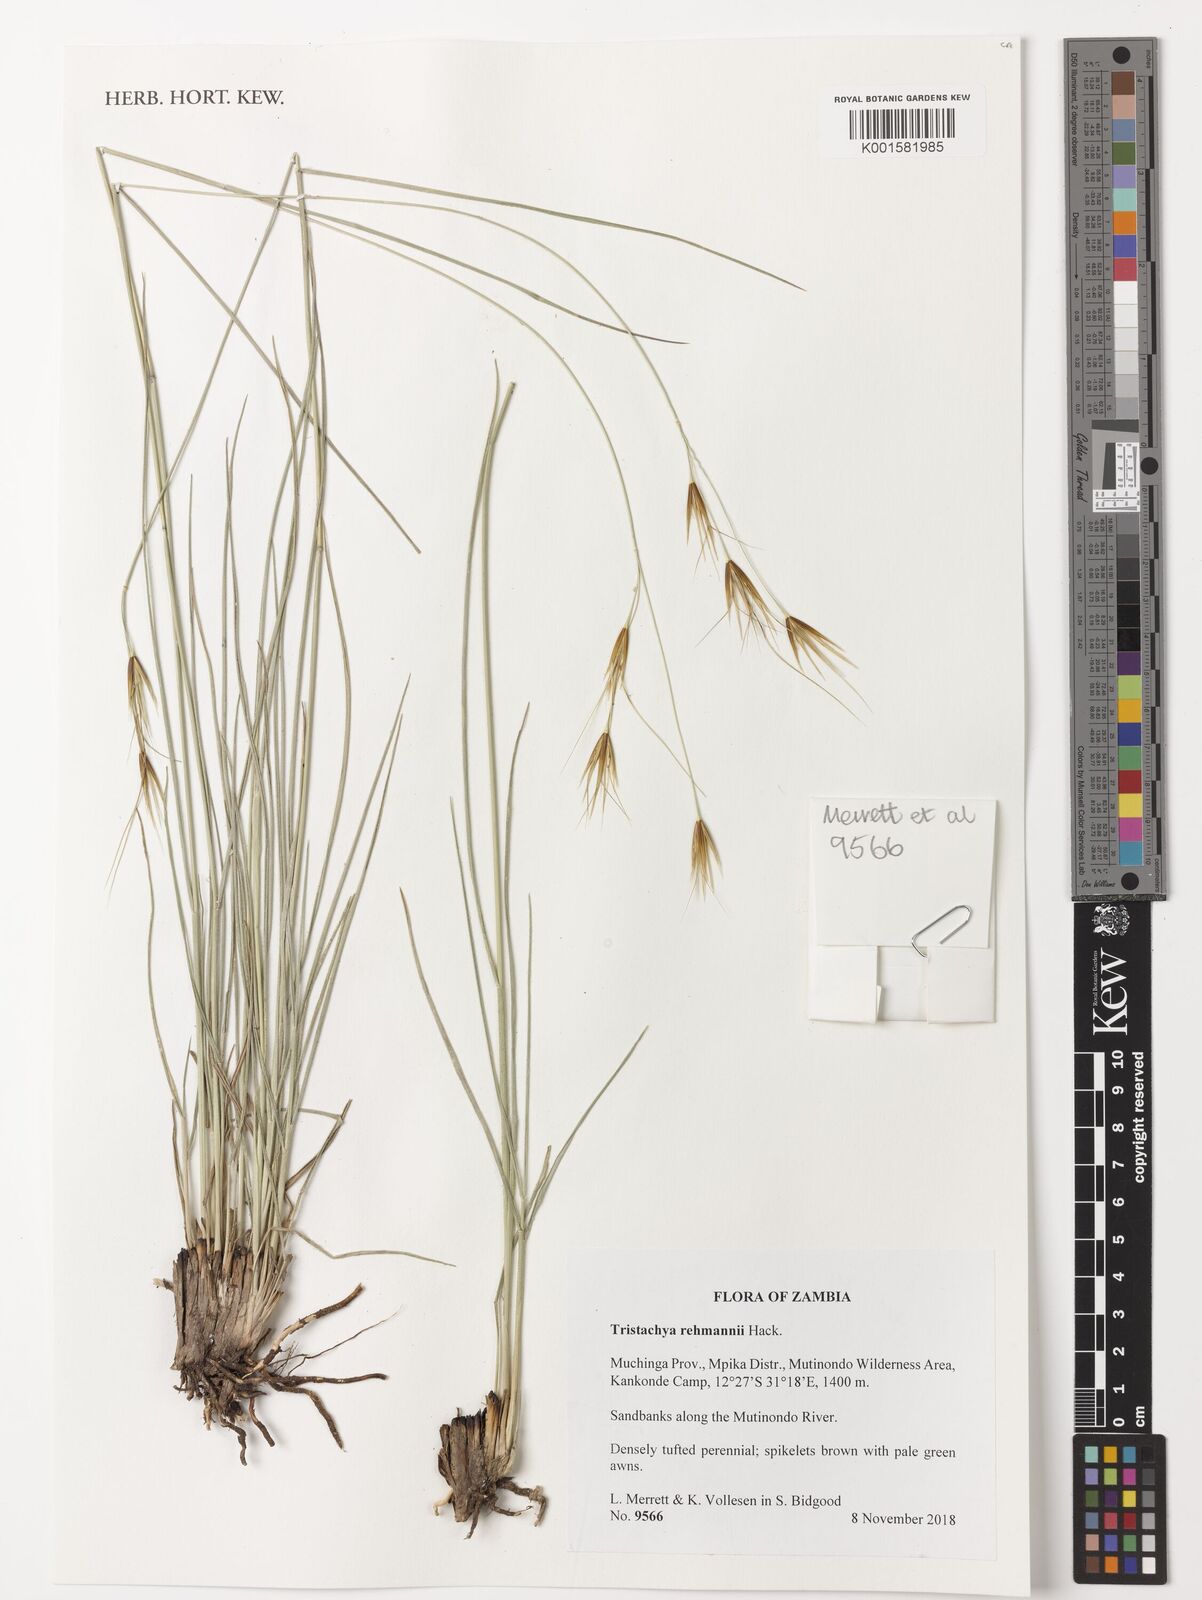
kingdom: Plantae
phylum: Tracheophyta
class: Liliopsida
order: Poales
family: Poaceae
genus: Tristachya
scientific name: Tristachya rehmannii
